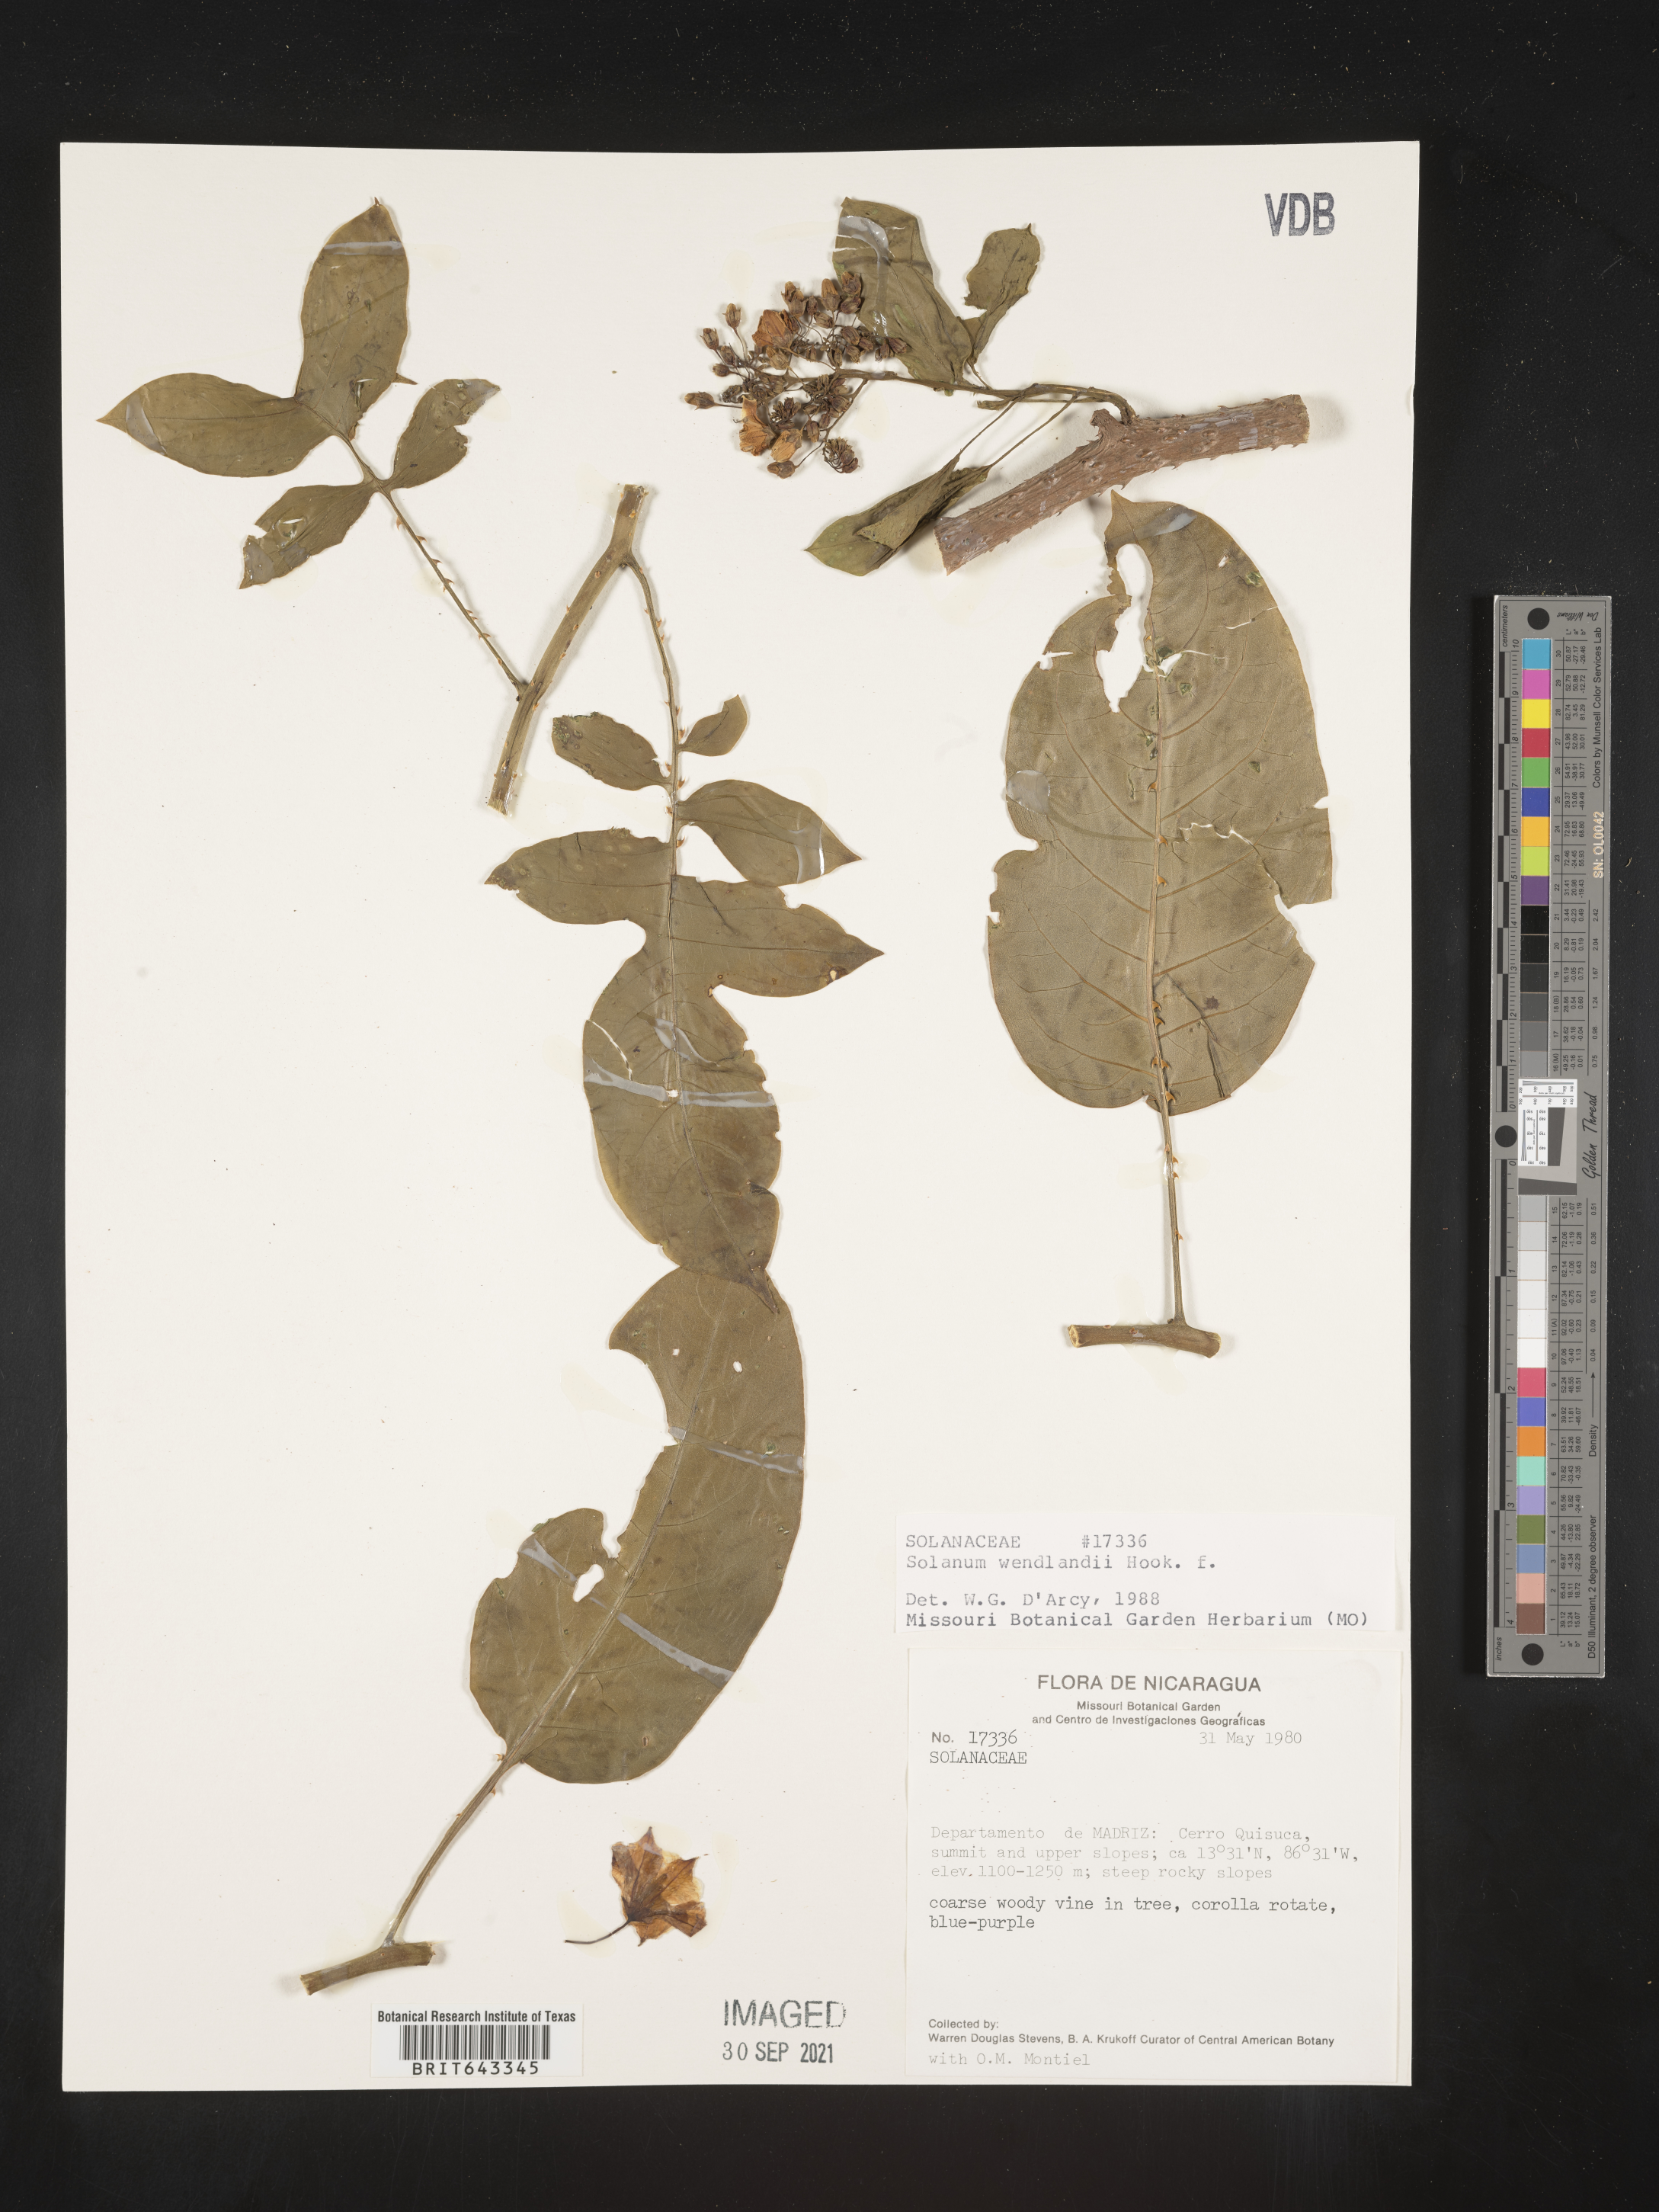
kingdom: Plantae
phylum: Tracheophyta
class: Magnoliopsida
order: Solanales
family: Solanaceae
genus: Solanum
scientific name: Solanum
